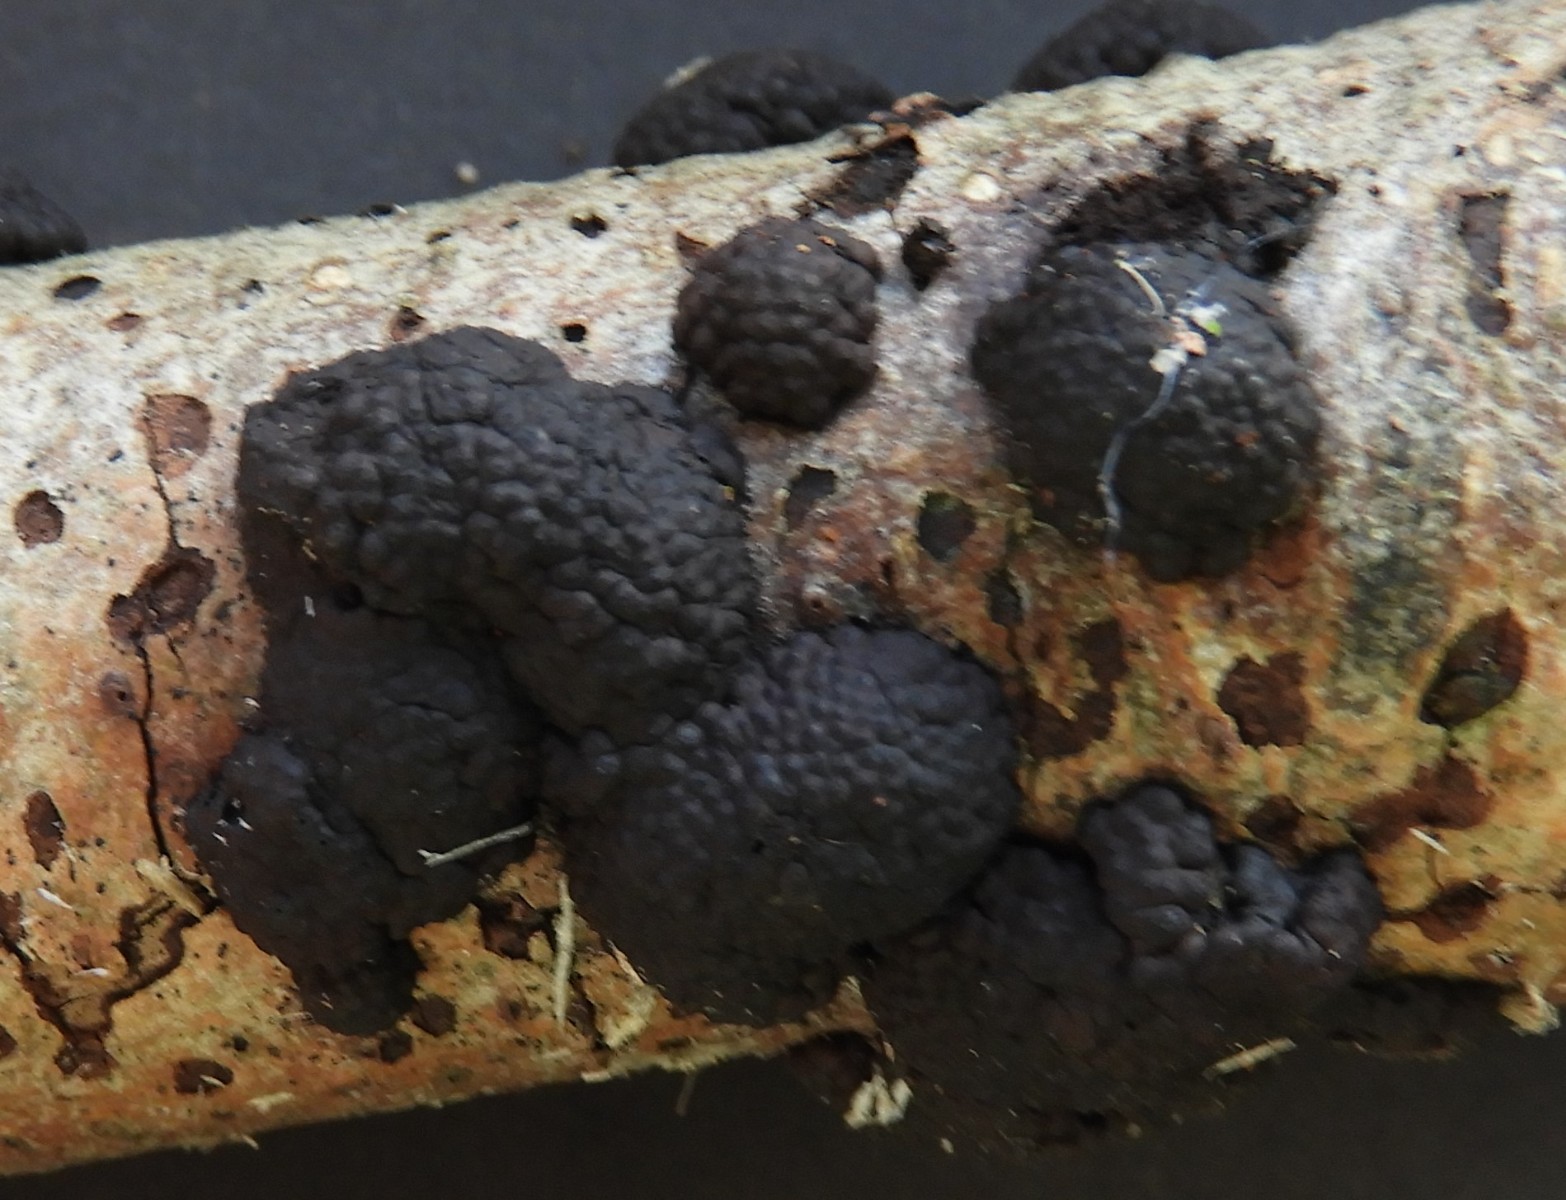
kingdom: Fungi
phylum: Ascomycota
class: Sordariomycetes
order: Xylariales
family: Hypoxylaceae
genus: Jackrogersella
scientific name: Jackrogersella multiformis
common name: foranderlig kulbær
